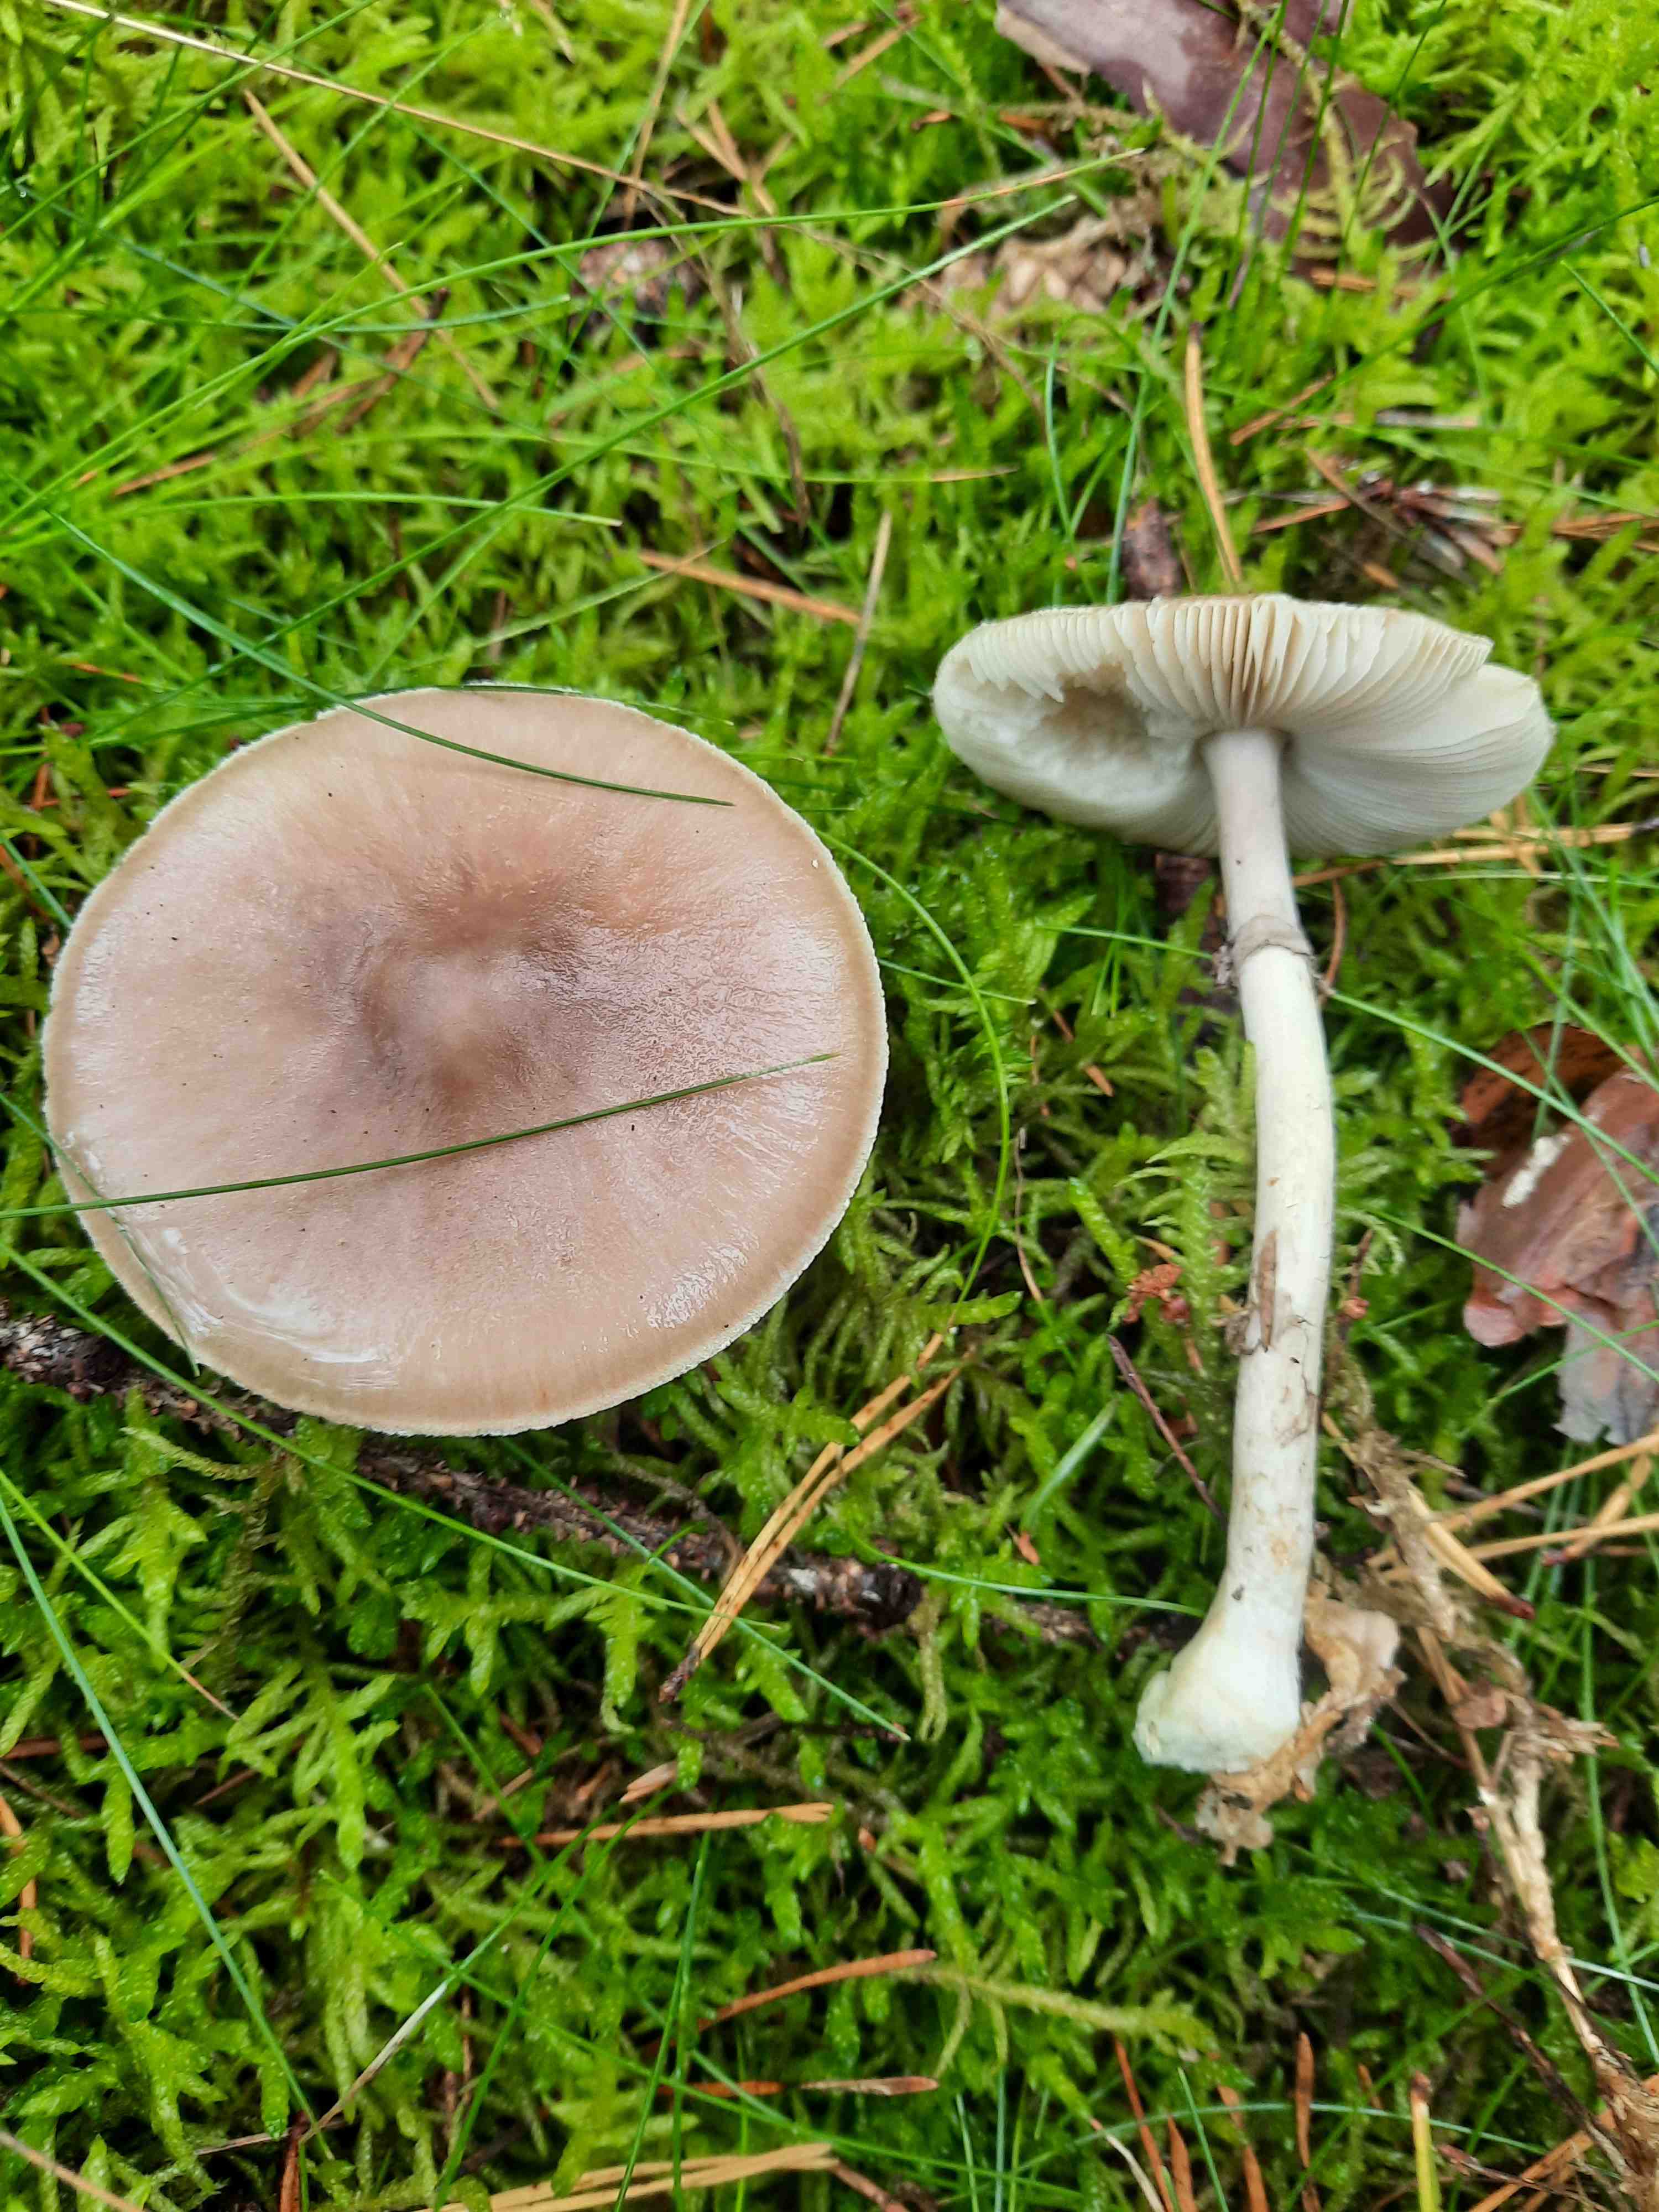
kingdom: Fungi
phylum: Basidiomycota
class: Agaricomycetes
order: Agaricales
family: Amanitaceae
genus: Amanita
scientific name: Amanita porphyria
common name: porfyr-fluesvamp
